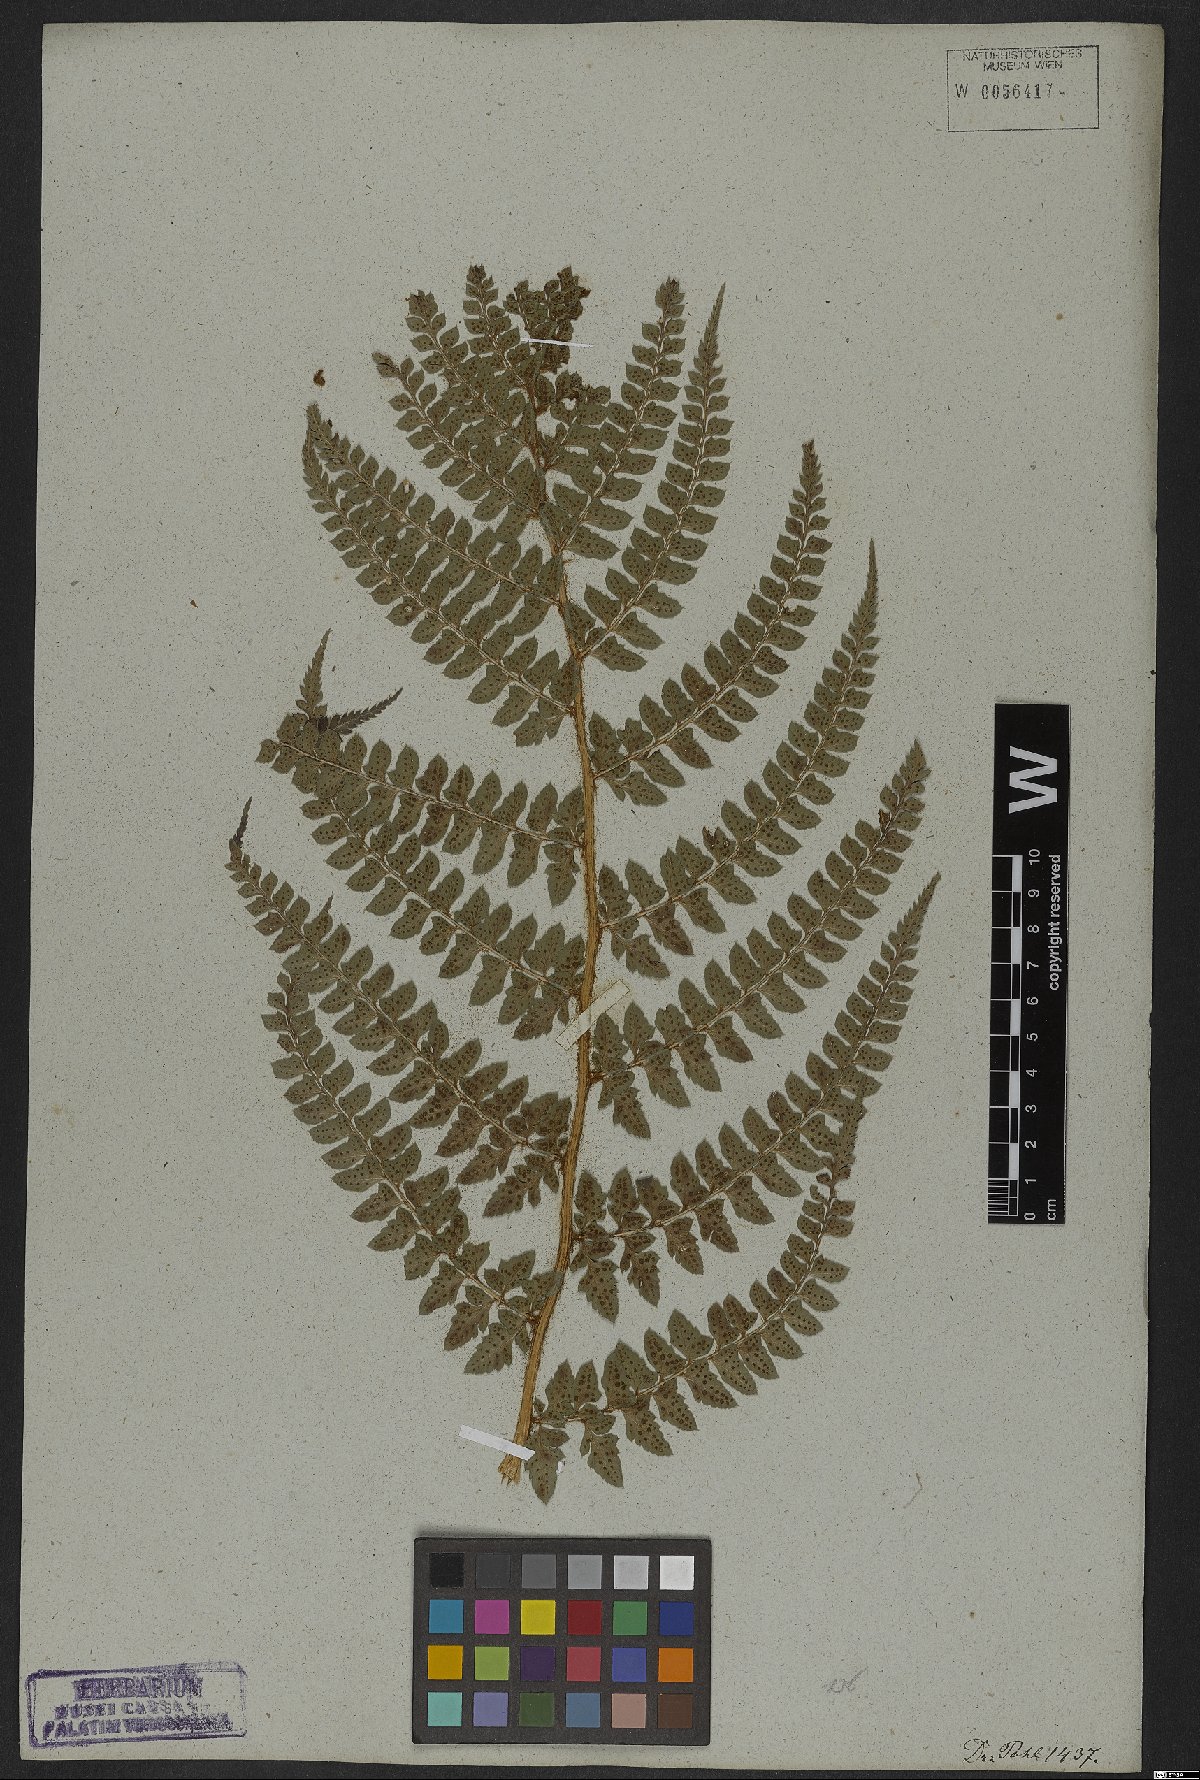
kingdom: Plantae
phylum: Tracheophyta
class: Polypodiopsida
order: Polypodiales
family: Dryopteridaceae
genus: Polystichum
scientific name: Polystichum aculeatum
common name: Hard shield-fern
